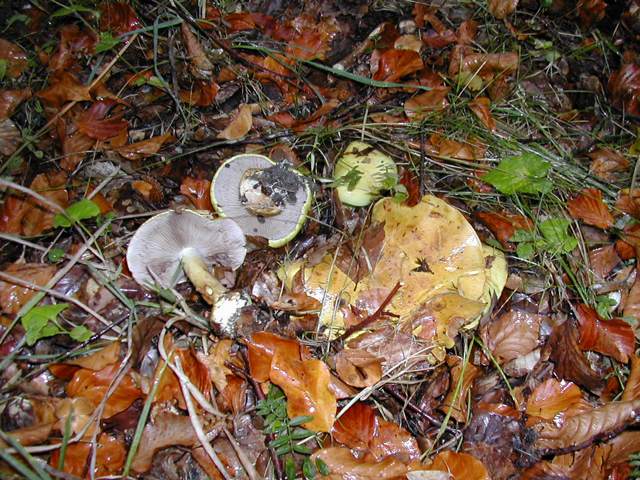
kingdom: Fungi
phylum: Basidiomycota
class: Agaricomycetes
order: Agaricales
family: Cortinariaceae
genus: Calonarius
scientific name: Calonarius callochrous
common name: lillabladet slørhat
